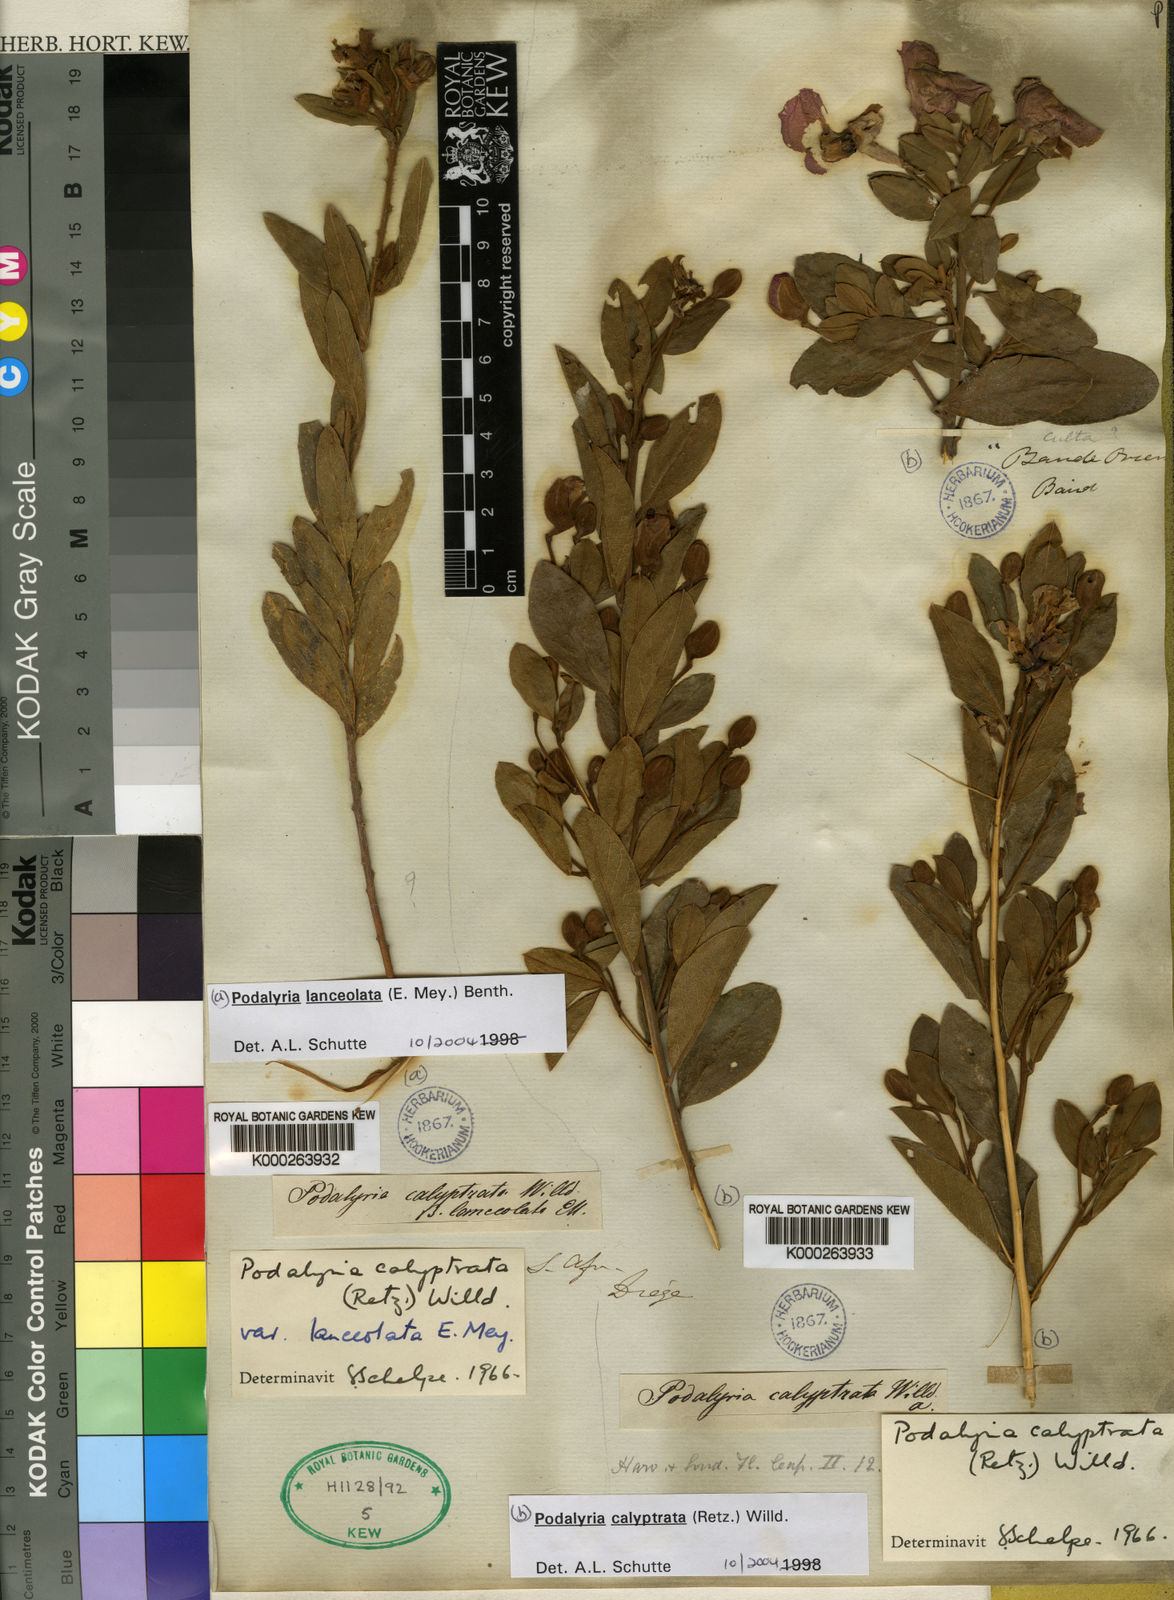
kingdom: Plantae
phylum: Tracheophyta
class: Magnoliopsida
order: Fabales
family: Fabaceae
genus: Podalyria
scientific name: Podalyria calyptrata
